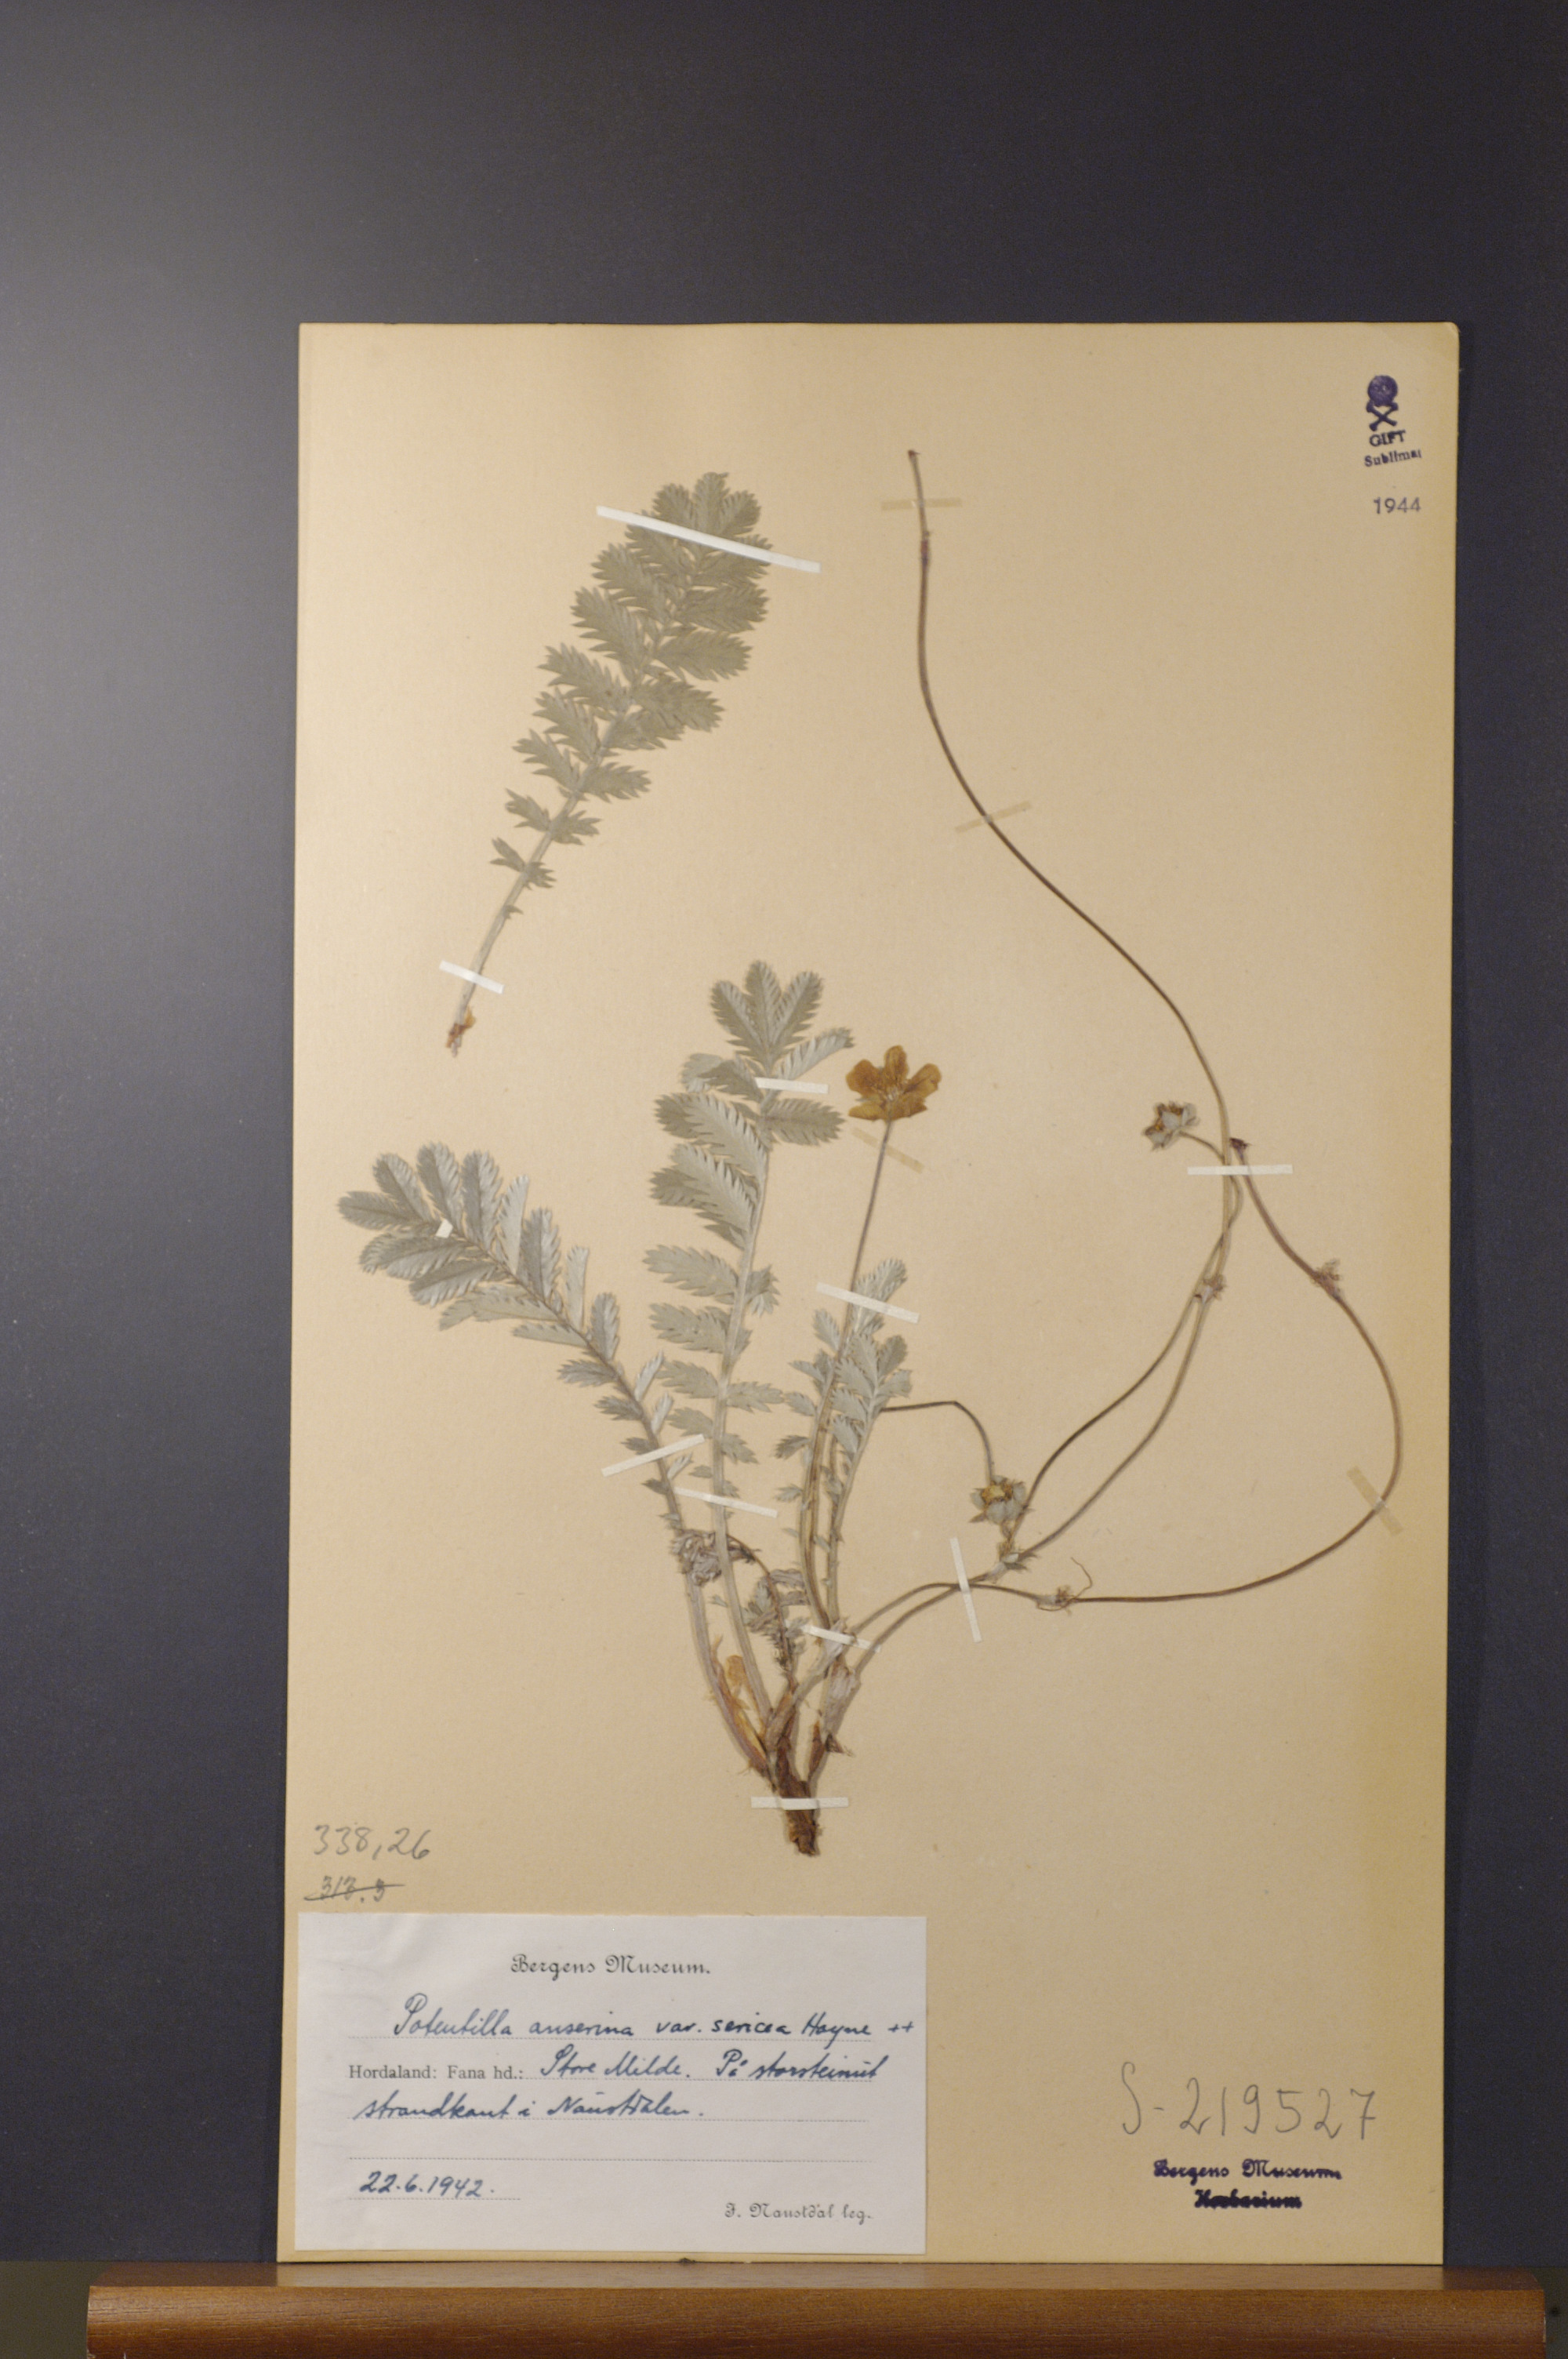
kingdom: Plantae
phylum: Tracheophyta
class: Magnoliopsida
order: Rosales
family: Rosaceae
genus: Argentina
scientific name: Argentina anserina
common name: Common silverweed
